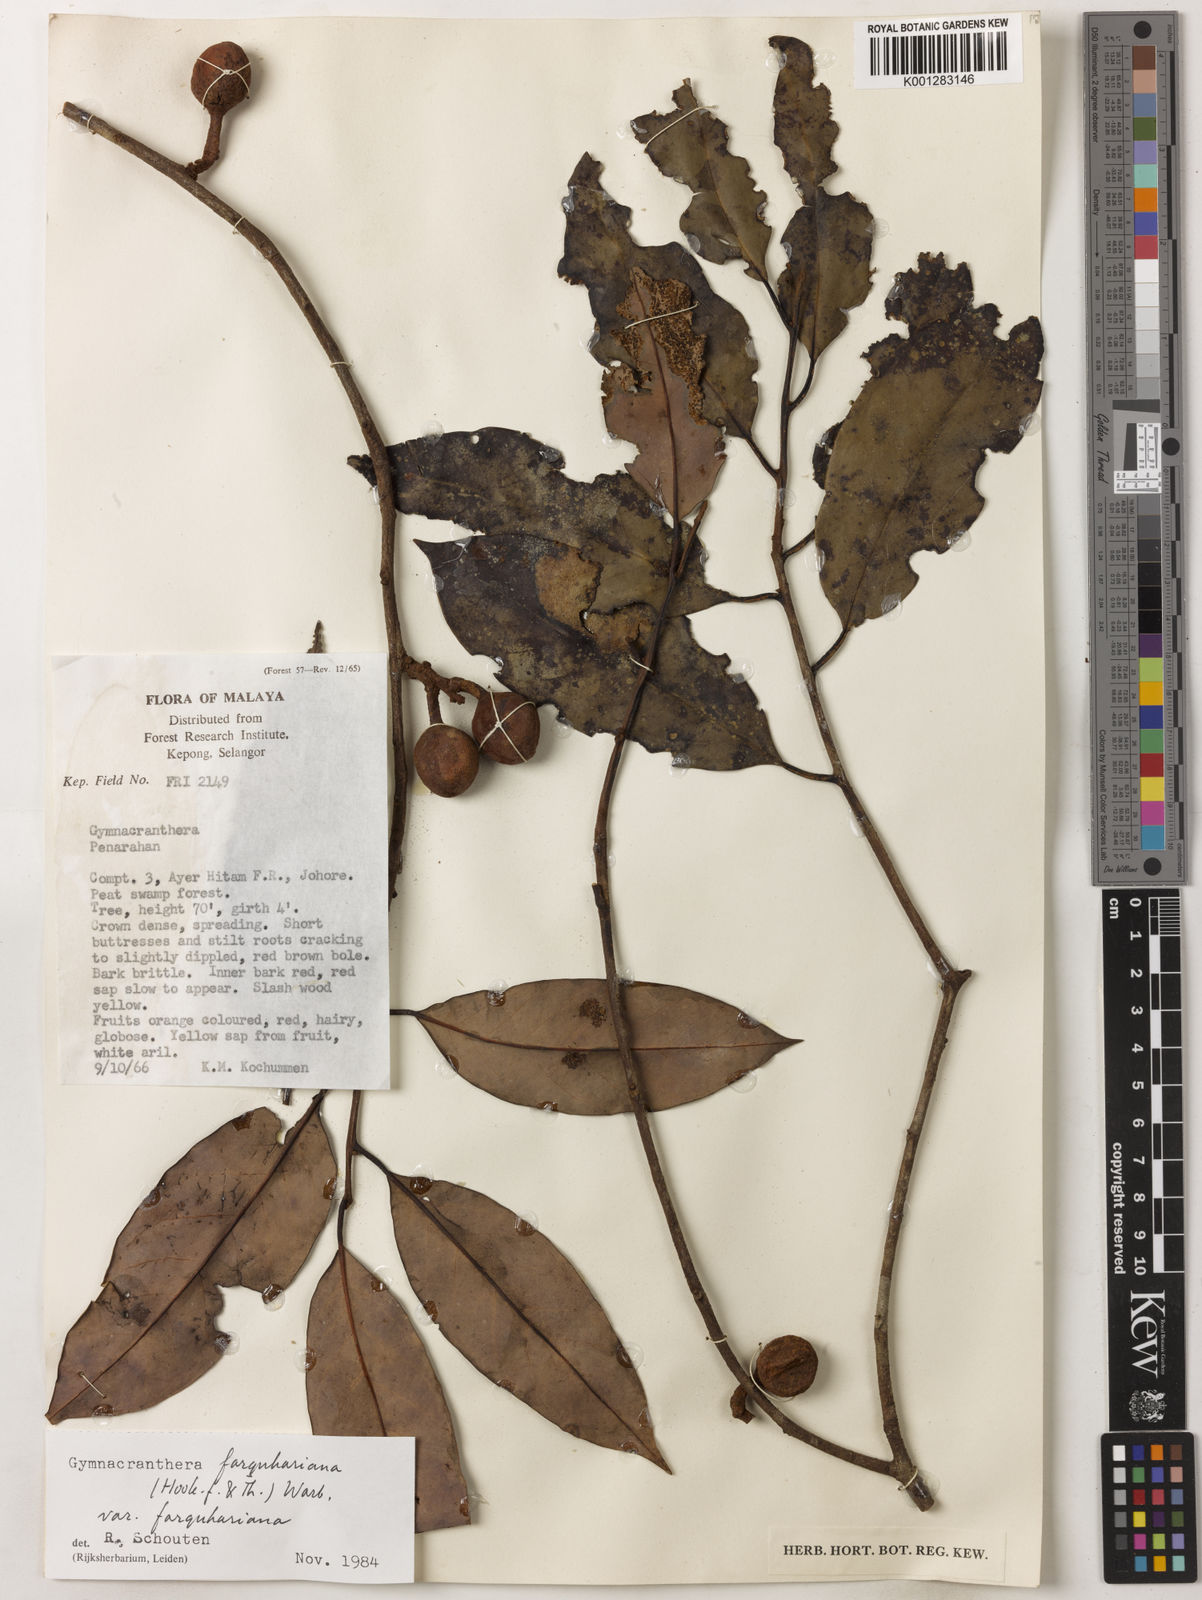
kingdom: Plantae
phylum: Tracheophyta
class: Magnoliopsida
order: Magnoliales
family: Myristicaceae
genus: Gymnacranthera
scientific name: Gymnacranthera farquhariana
